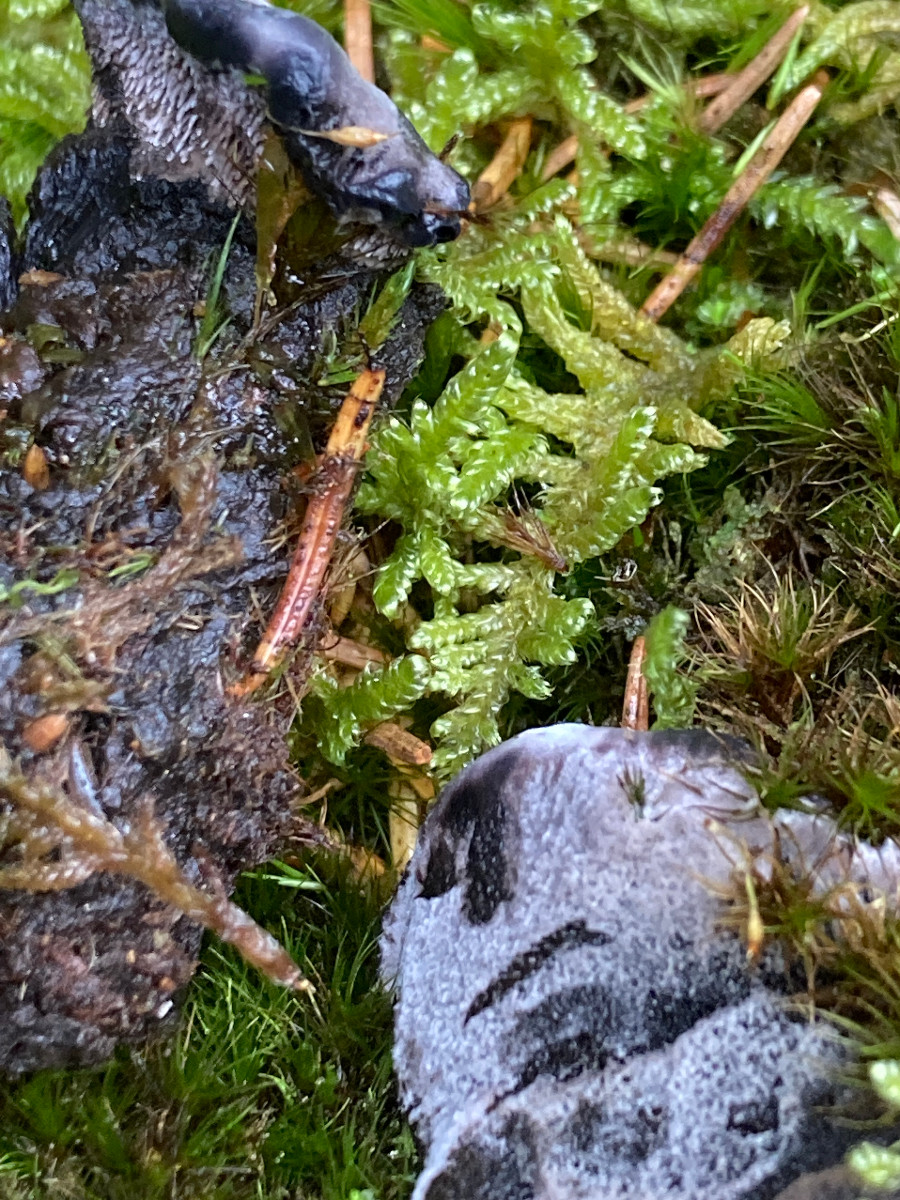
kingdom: Fungi
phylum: Basidiomycota
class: Agaricomycetes
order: Thelephorales
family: Thelephoraceae
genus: Phellodon
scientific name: Phellodon
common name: mørk duftpigsvamp
